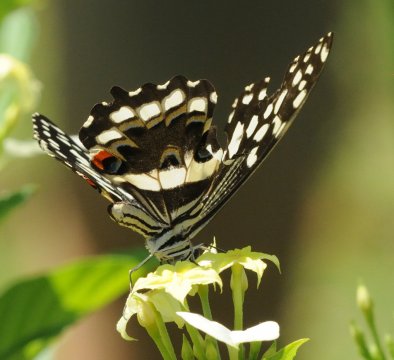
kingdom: Animalia
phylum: Arthropoda
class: Insecta
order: Lepidoptera
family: Papilionidae
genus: Papilio
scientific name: Papilio demodocus
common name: Citrus Swallowtail
